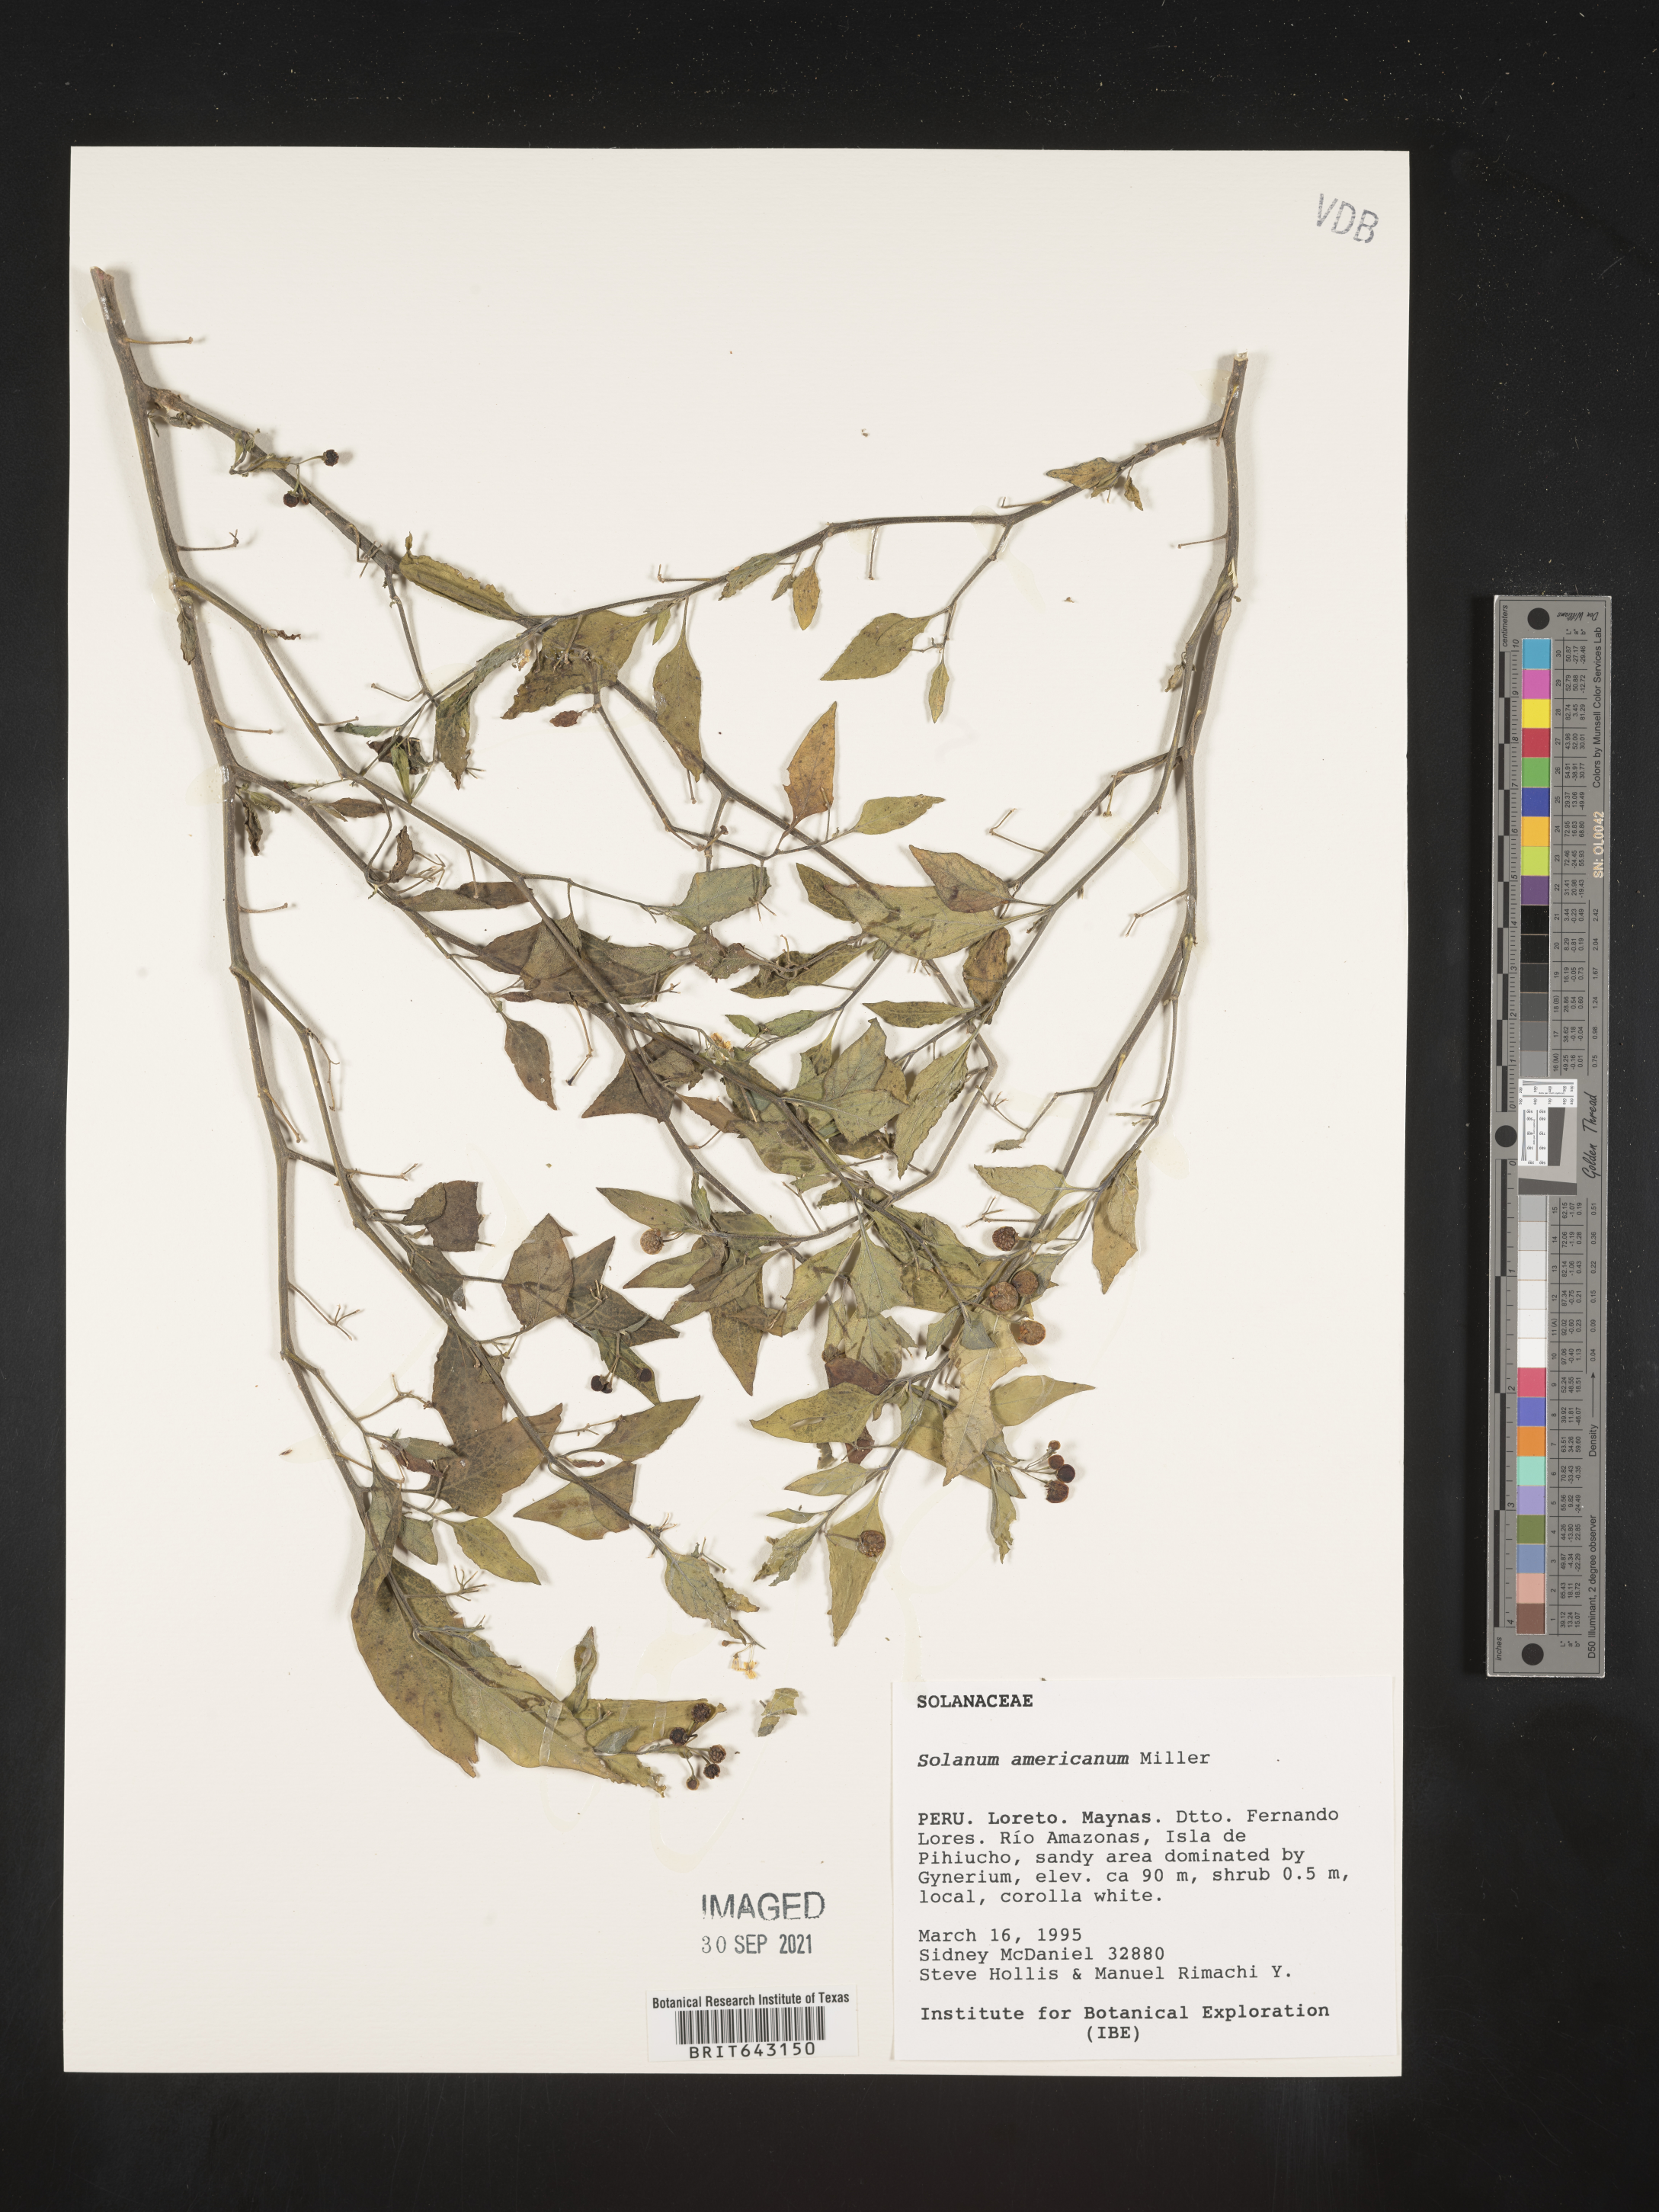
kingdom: Plantae
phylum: Tracheophyta
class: Magnoliopsida
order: Solanales
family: Solanaceae
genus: Solanum
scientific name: Solanum
